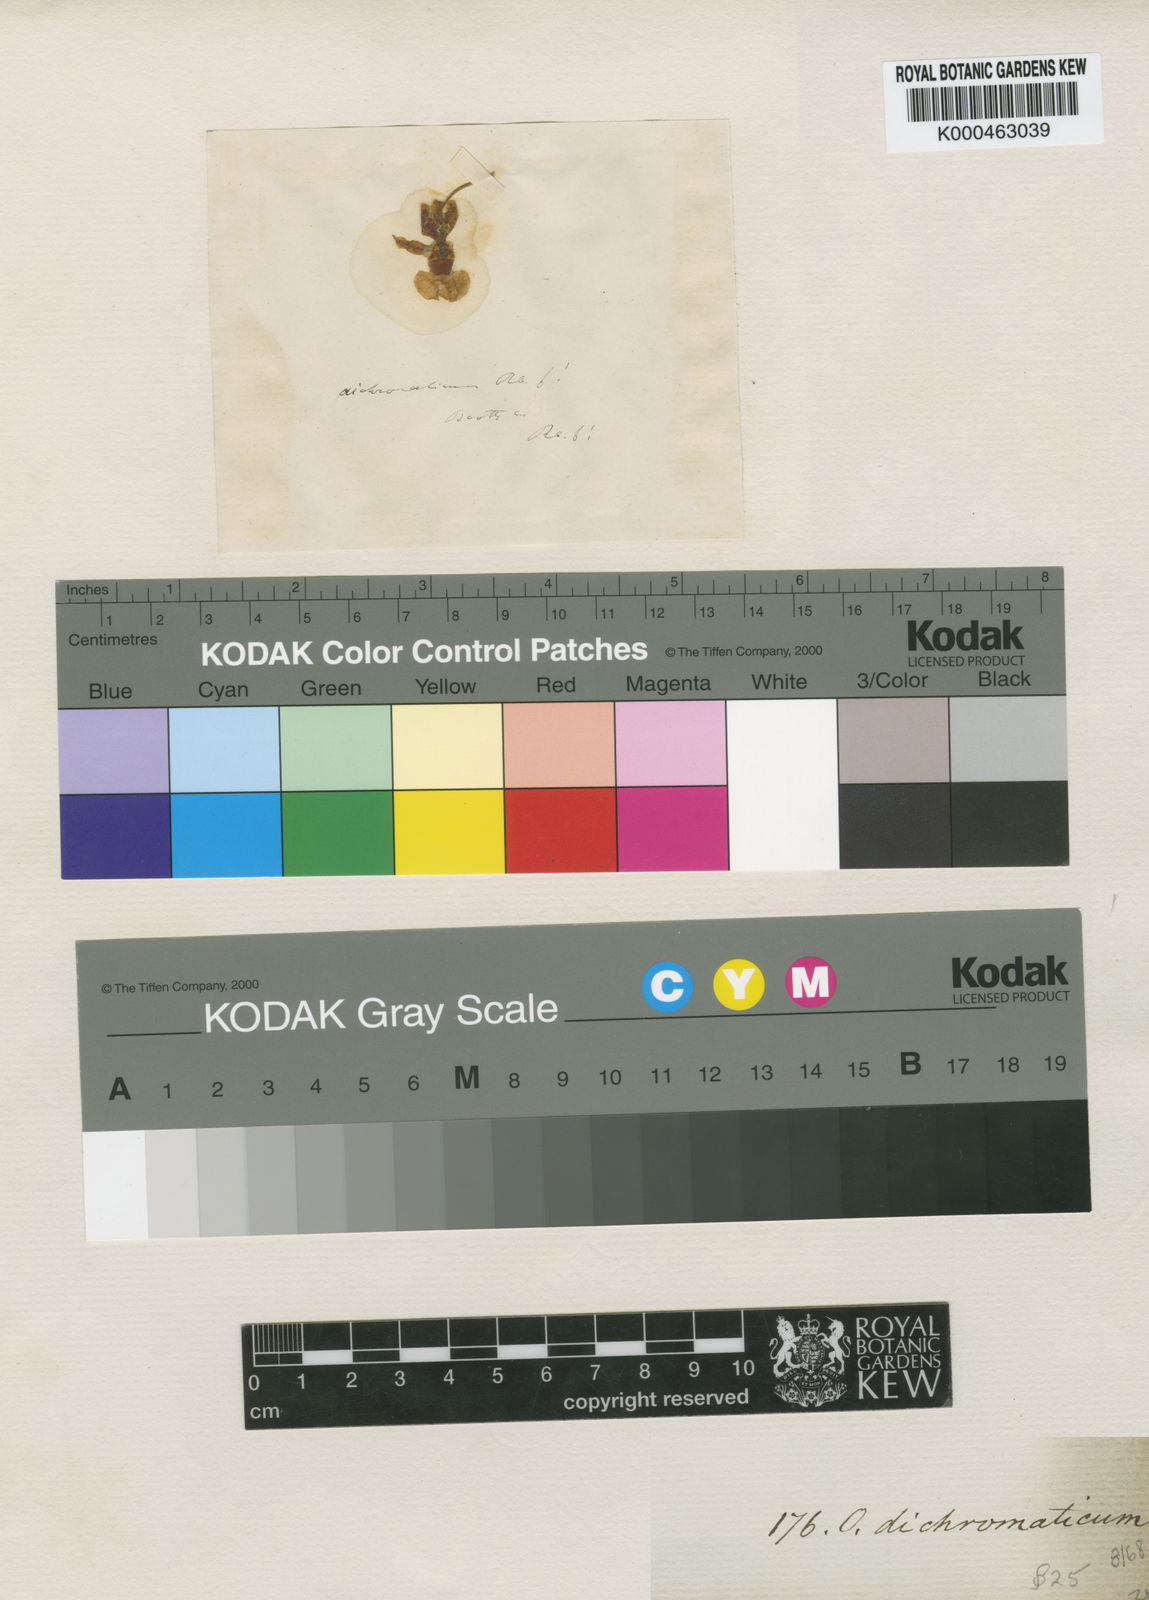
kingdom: Plantae
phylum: Tracheophyta
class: Liliopsida
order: Asparagales
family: Orchidaceae
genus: Oncidium
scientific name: Oncidium dichromaticum
